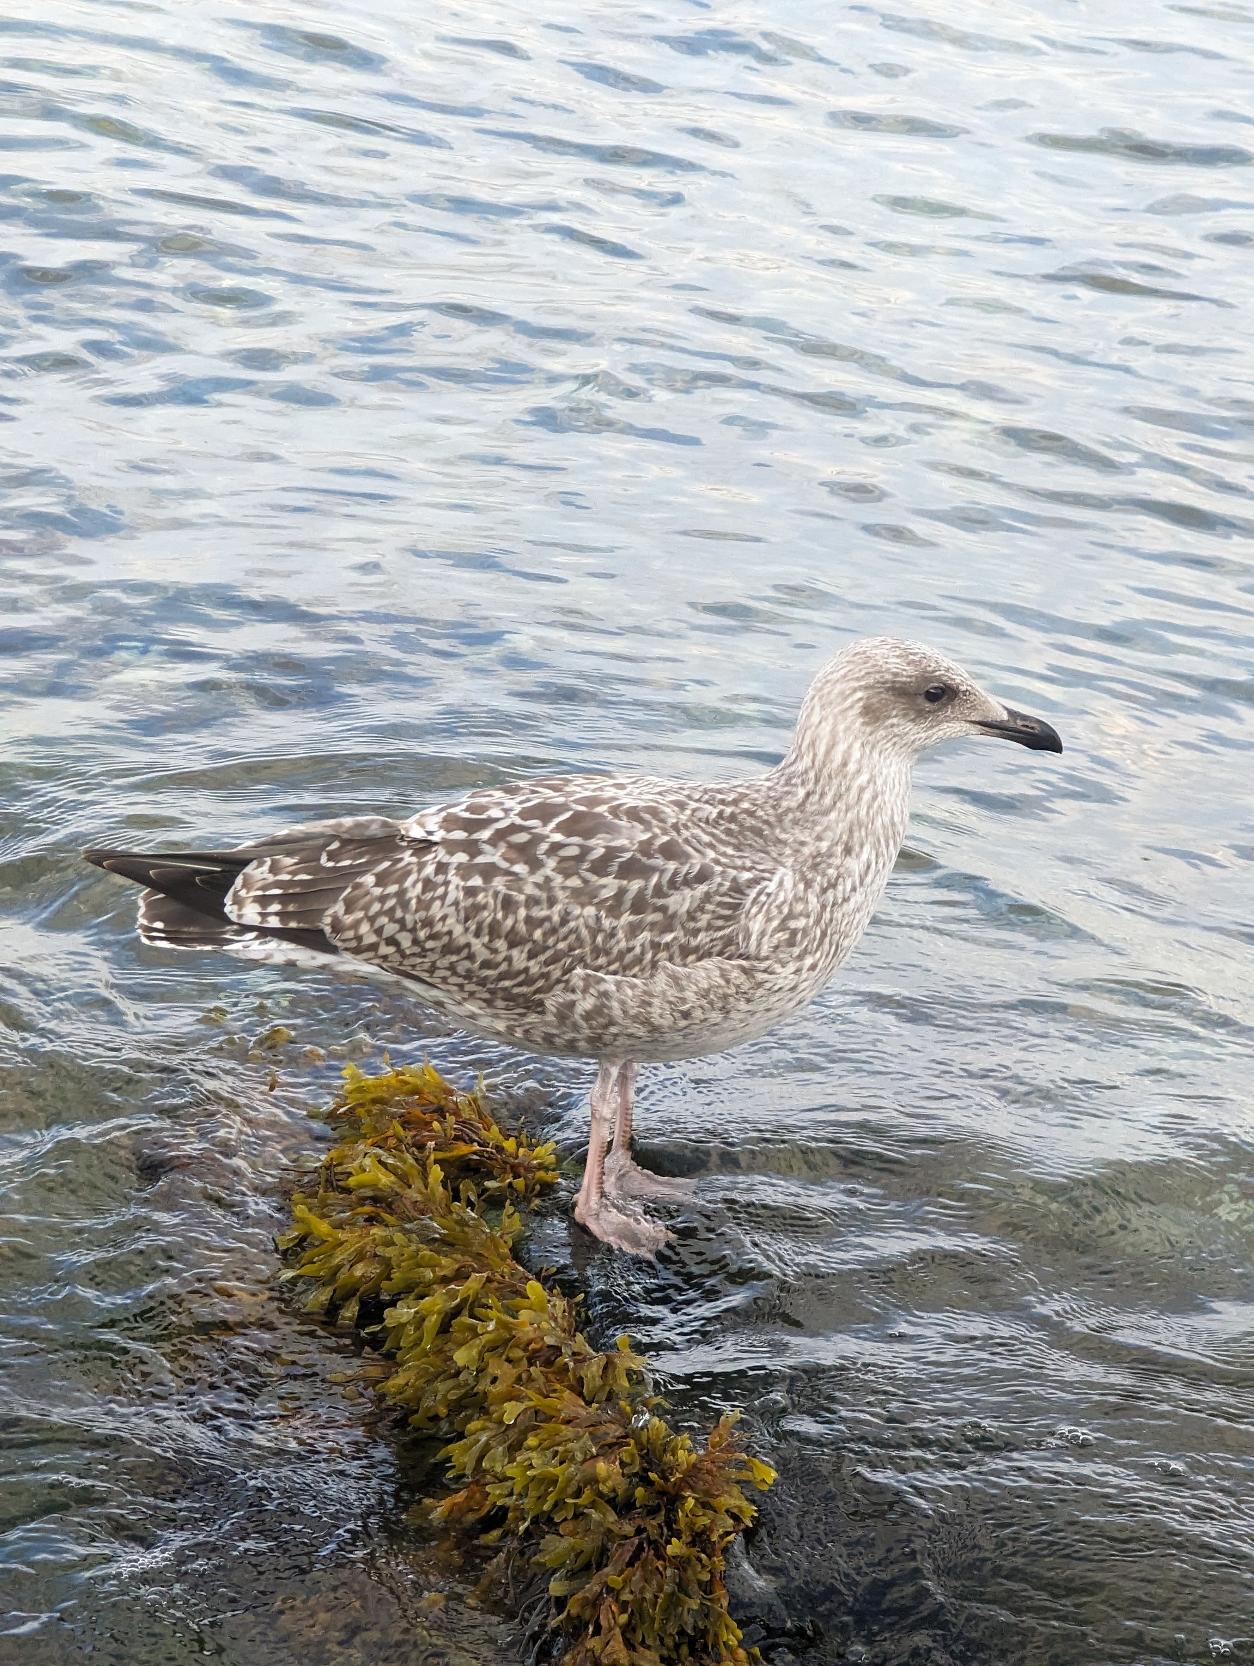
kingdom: Animalia
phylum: Chordata
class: Aves
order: Charadriiformes
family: Laridae
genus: Larus
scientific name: Larus argentatus
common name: Sølvmåge
